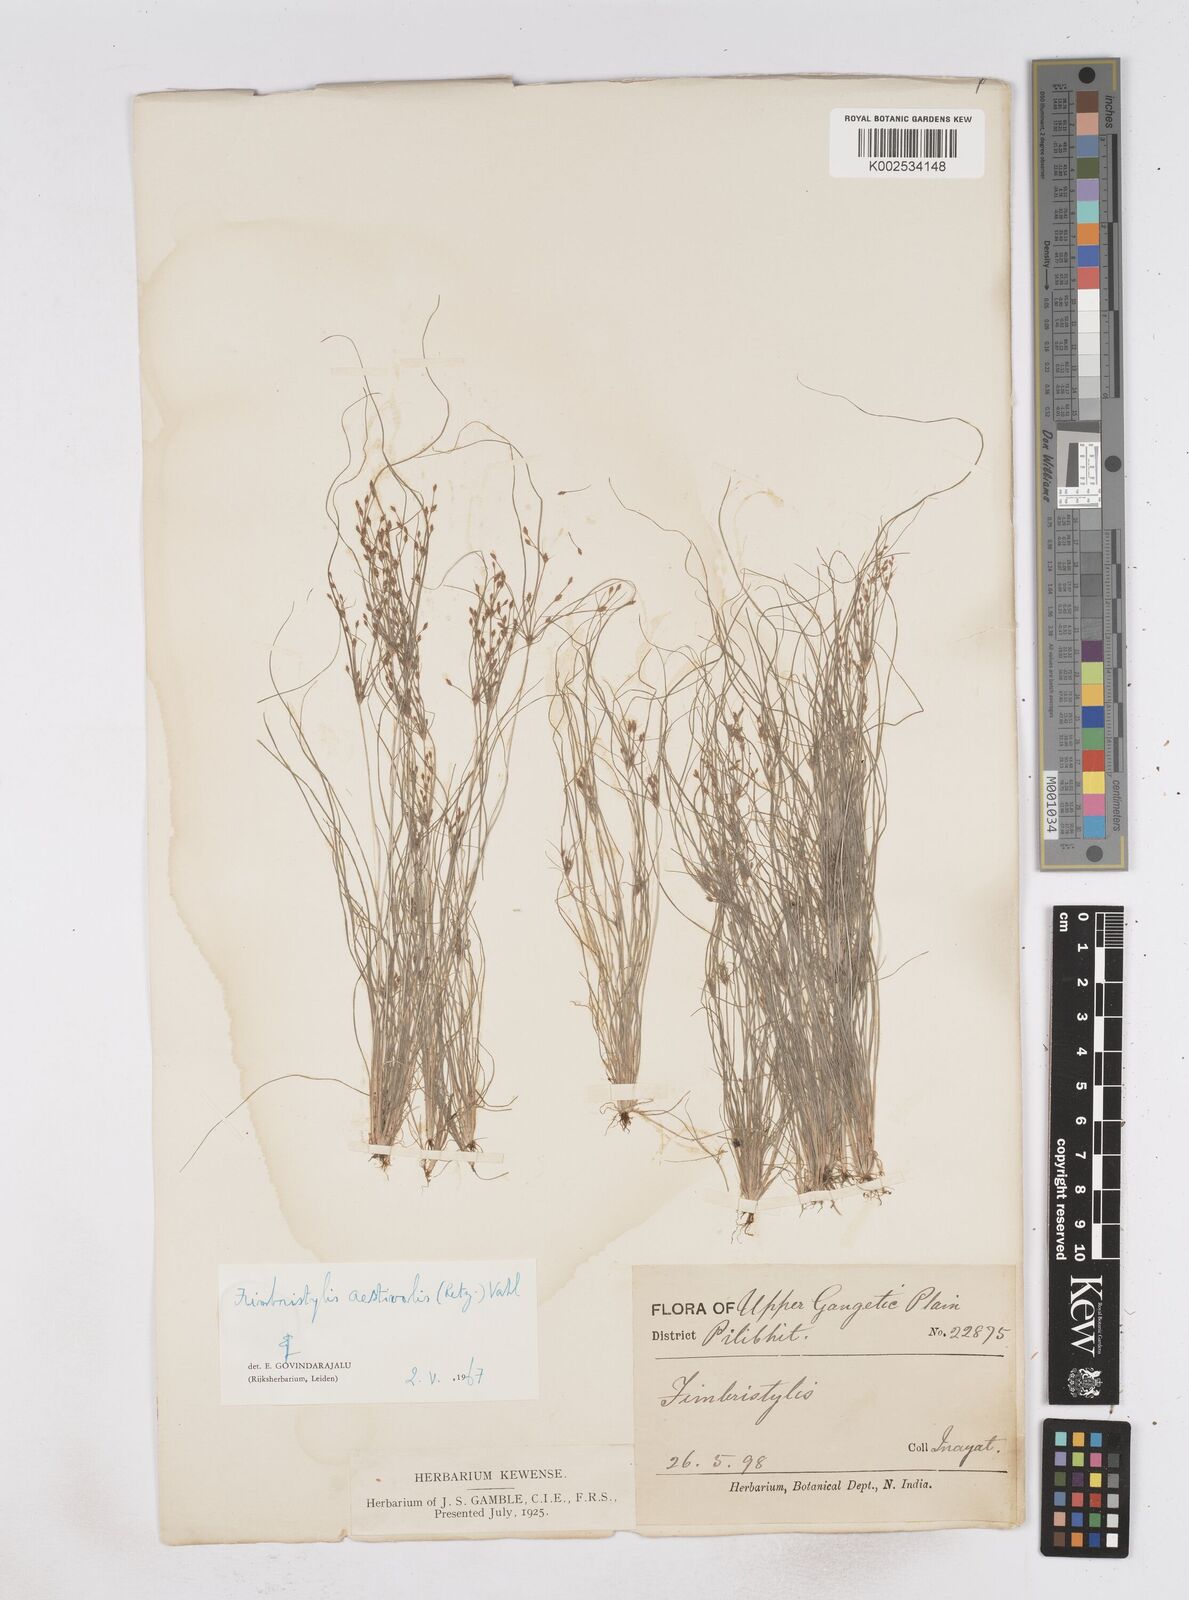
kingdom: Plantae
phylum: Tracheophyta
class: Liliopsida
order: Poales
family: Cyperaceae
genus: Fimbristylis
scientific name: Fimbristylis aestivalis
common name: Summer fimbry
